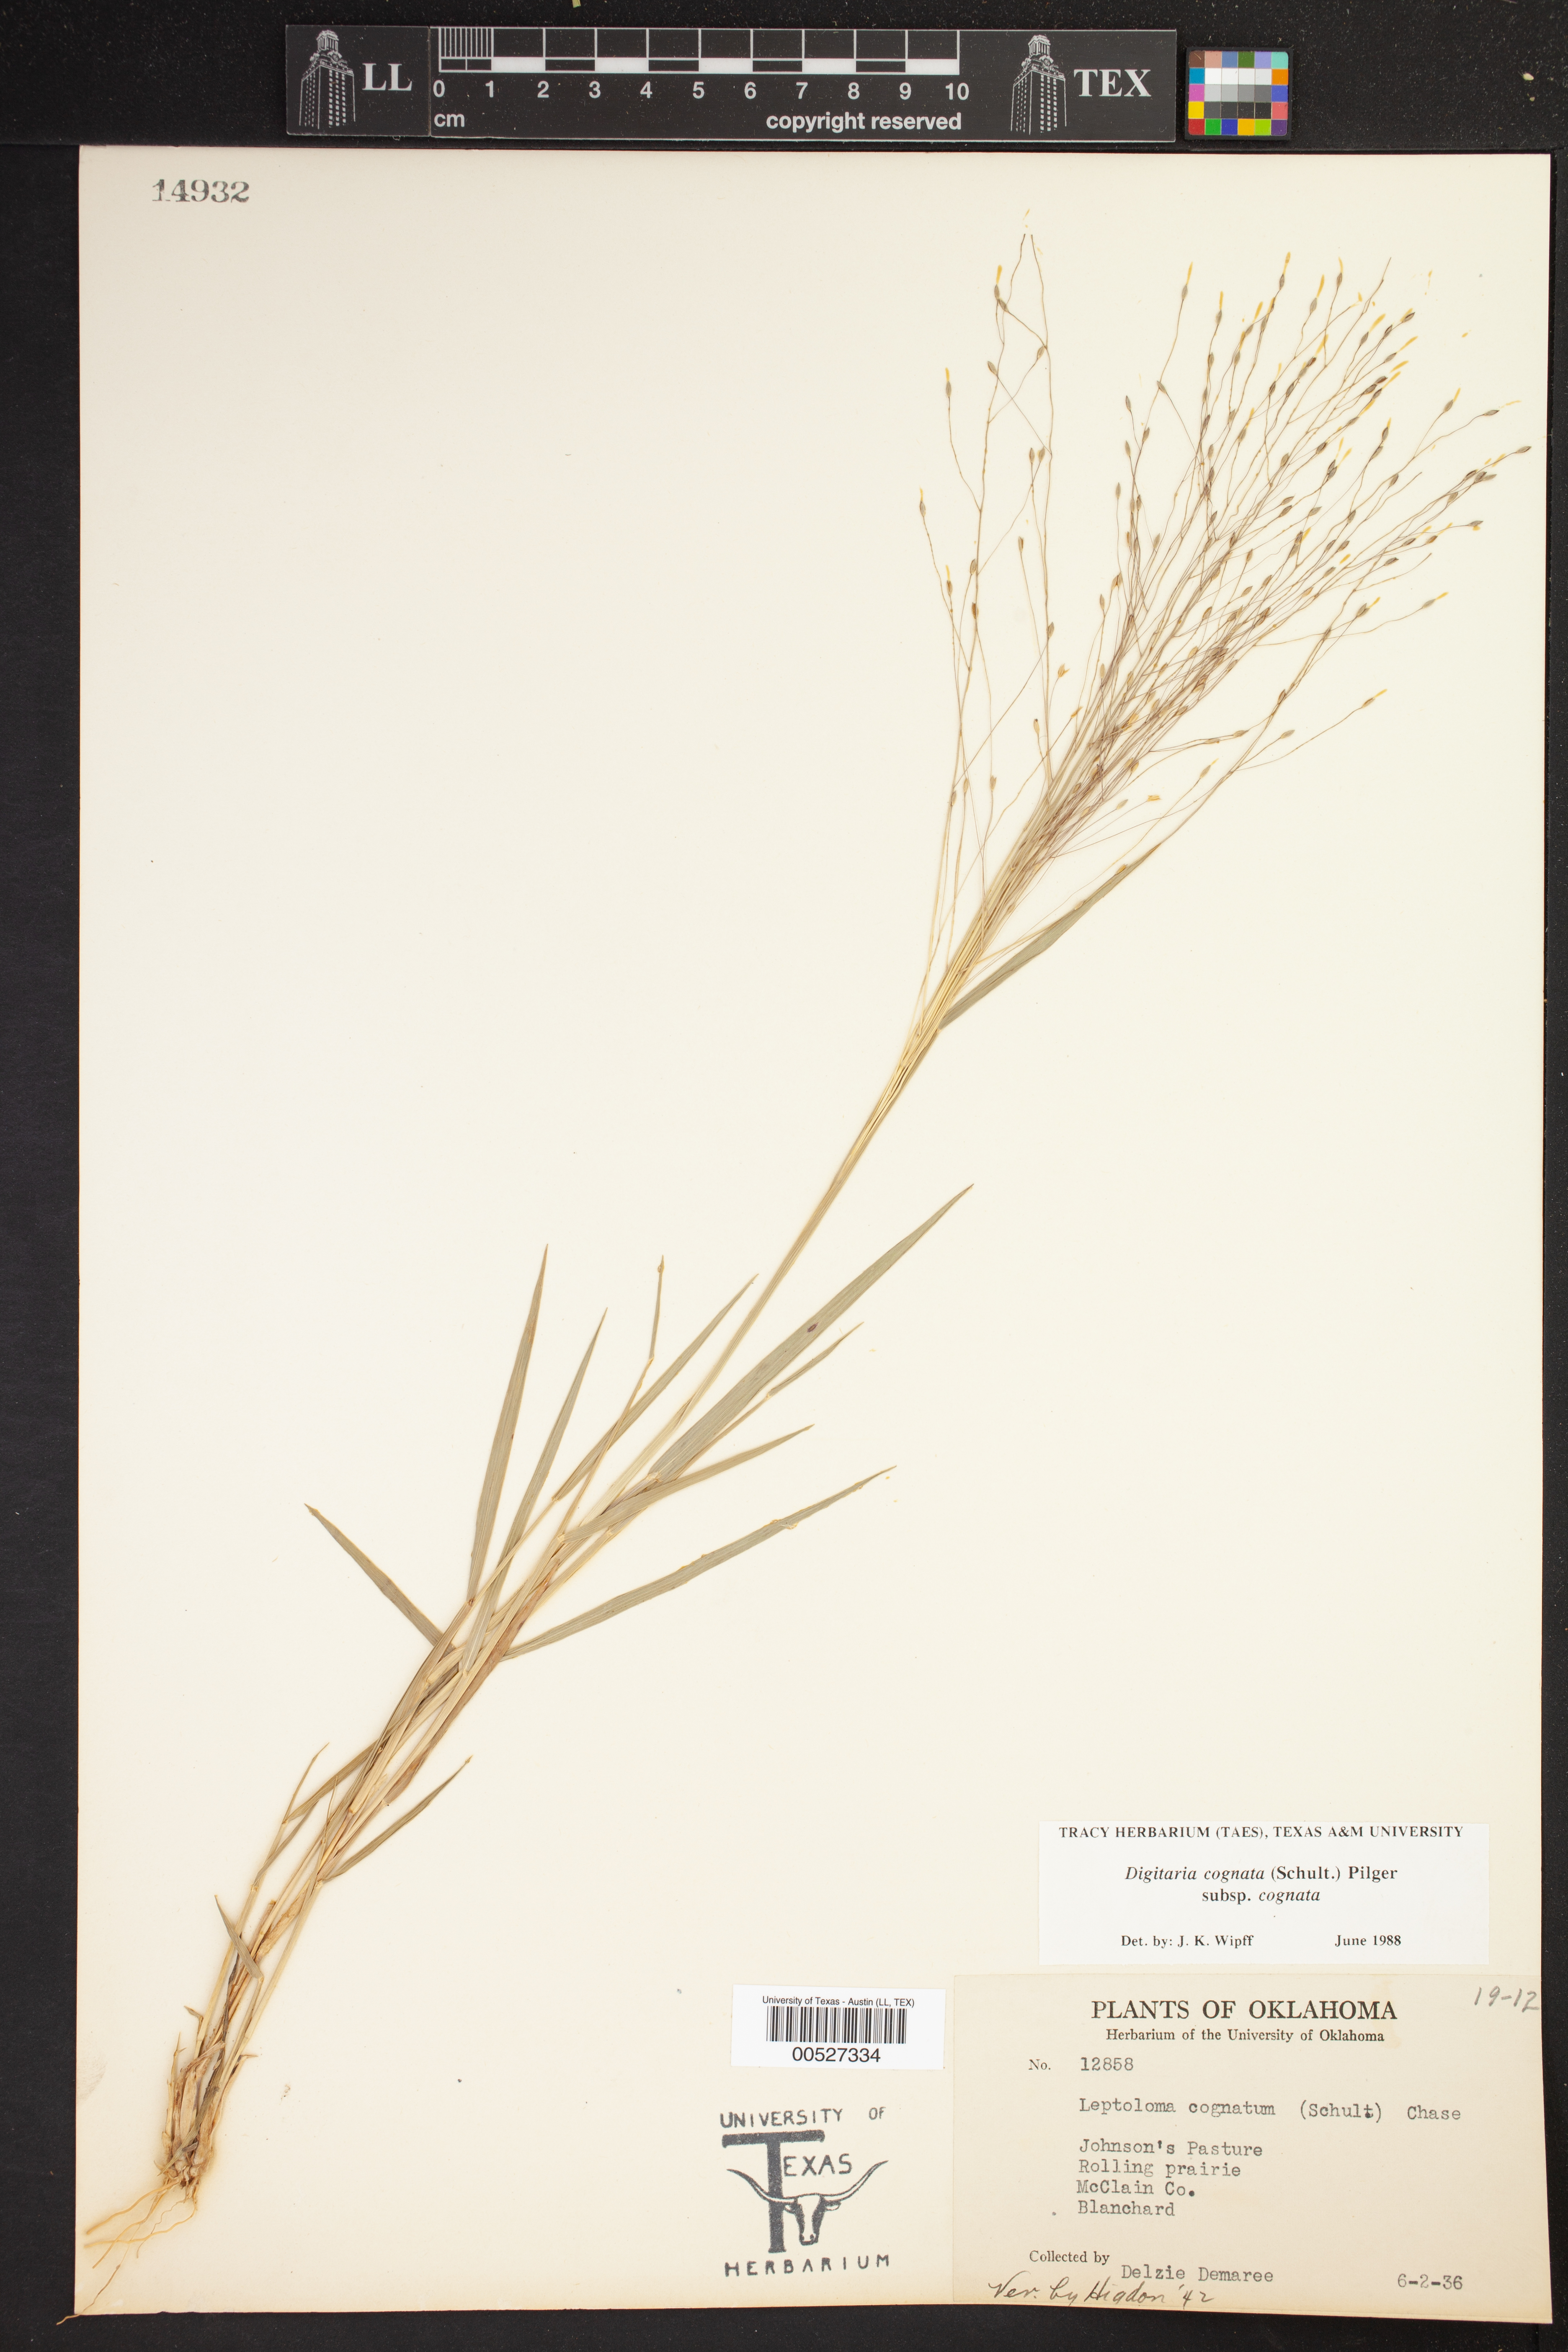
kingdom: Plantae
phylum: Tracheophyta
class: Liliopsida
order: Poales
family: Poaceae
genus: Digitaria
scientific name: Digitaria cognata
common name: Fall witchgrass
